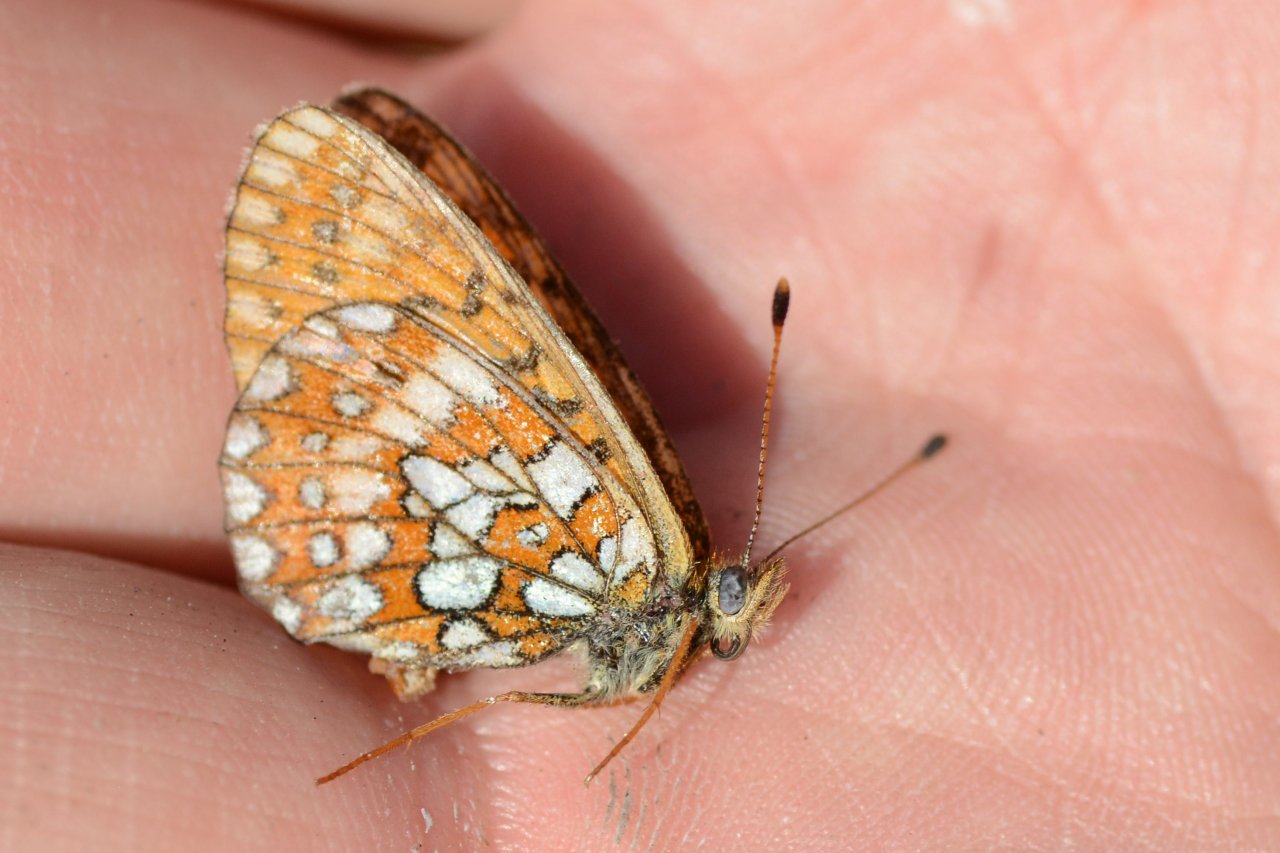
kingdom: Animalia
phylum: Arthropoda
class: Insecta
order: Lepidoptera
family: Nymphalidae
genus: Boloria
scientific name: Boloria eunomia
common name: Bog Fritillary
